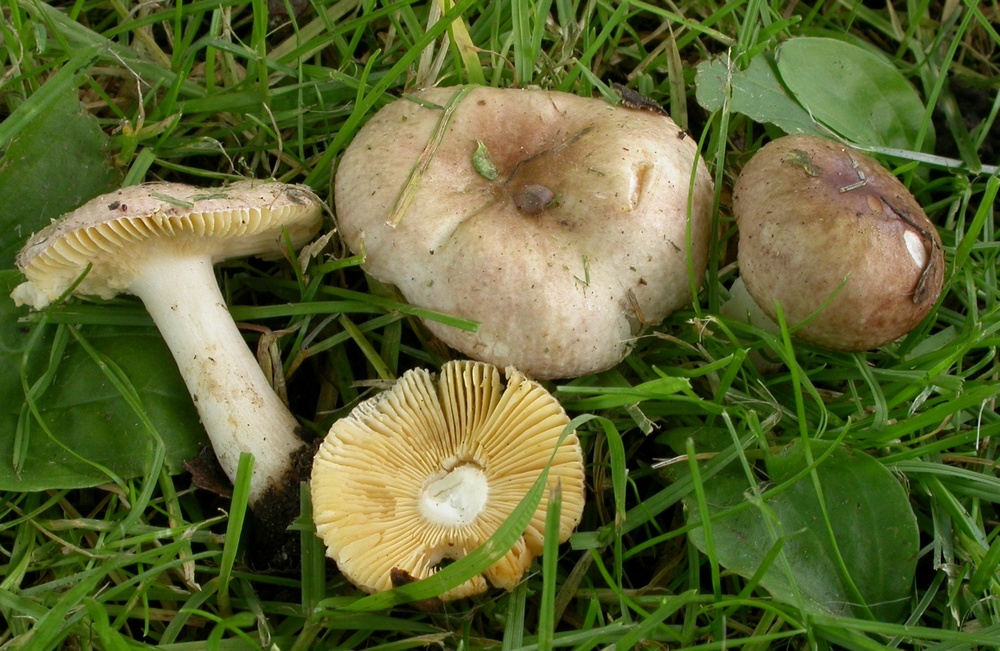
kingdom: Fungi
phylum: Basidiomycota
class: Agaricomycetes
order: Russulales
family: Russulaceae
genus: Russula
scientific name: Russula odorata
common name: duft-skørhat
